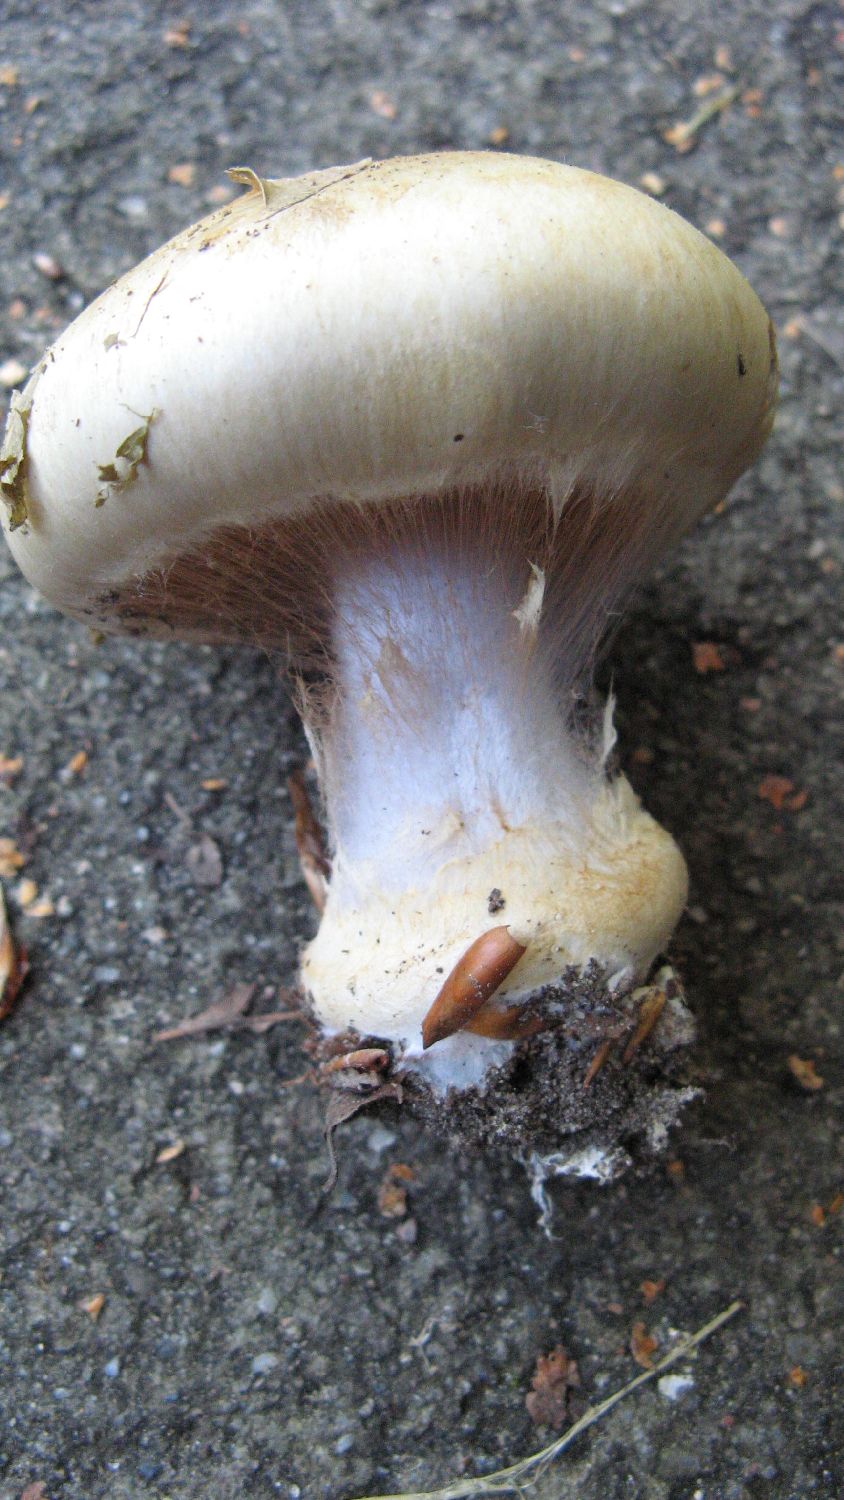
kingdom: Fungi
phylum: Basidiomycota
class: Agaricomycetes
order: Agaricales
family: Cortinariaceae
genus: Cortinarius
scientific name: Cortinarius anserinus
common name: bøge-slørhat
